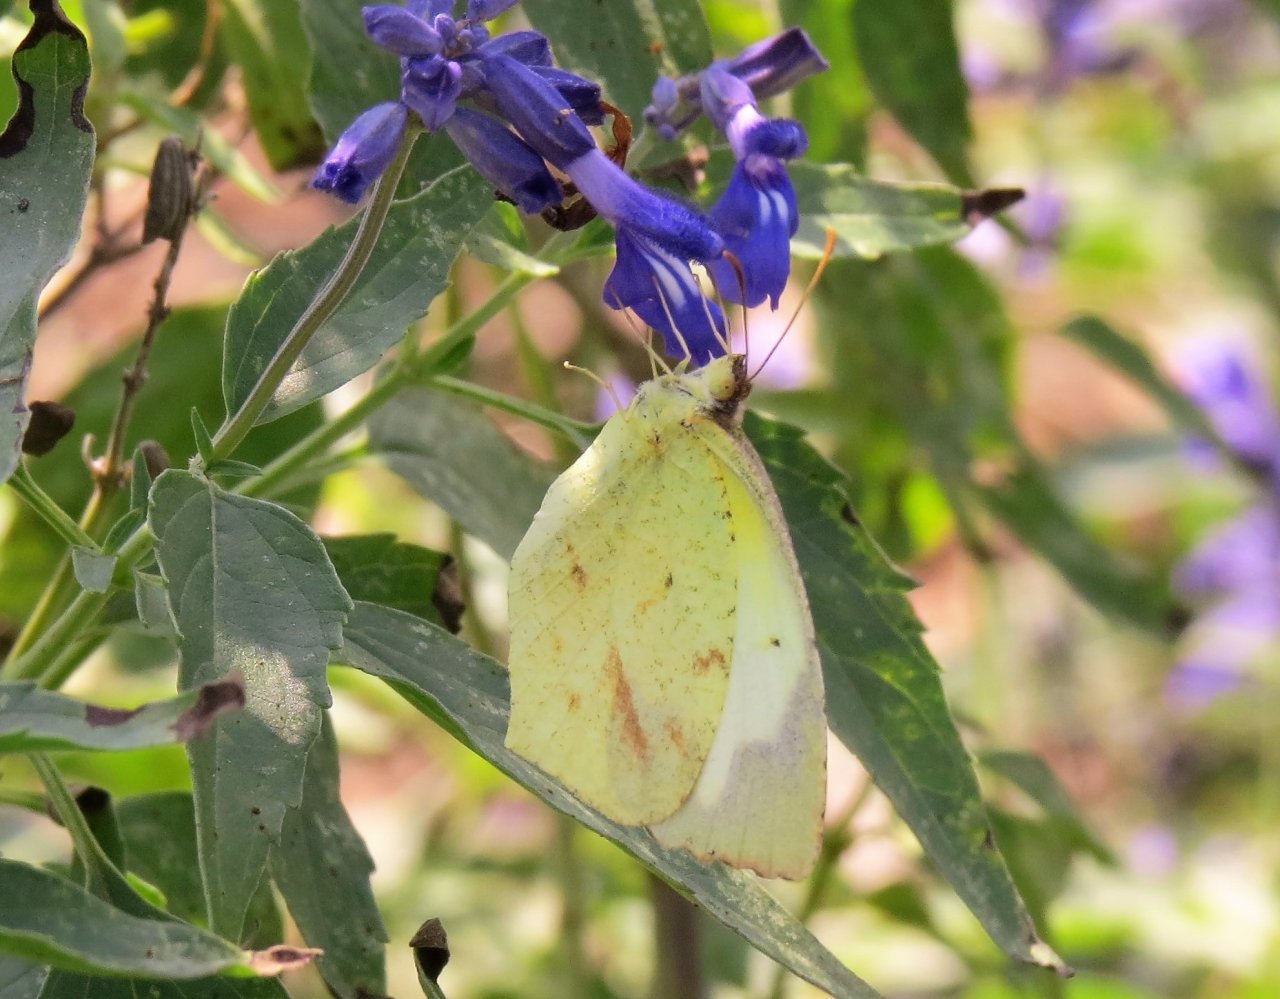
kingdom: Animalia
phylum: Arthropoda
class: Insecta
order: Lepidoptera
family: Pieridae
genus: Eurema
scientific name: Eurema mexicana
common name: Mexican Yellow
